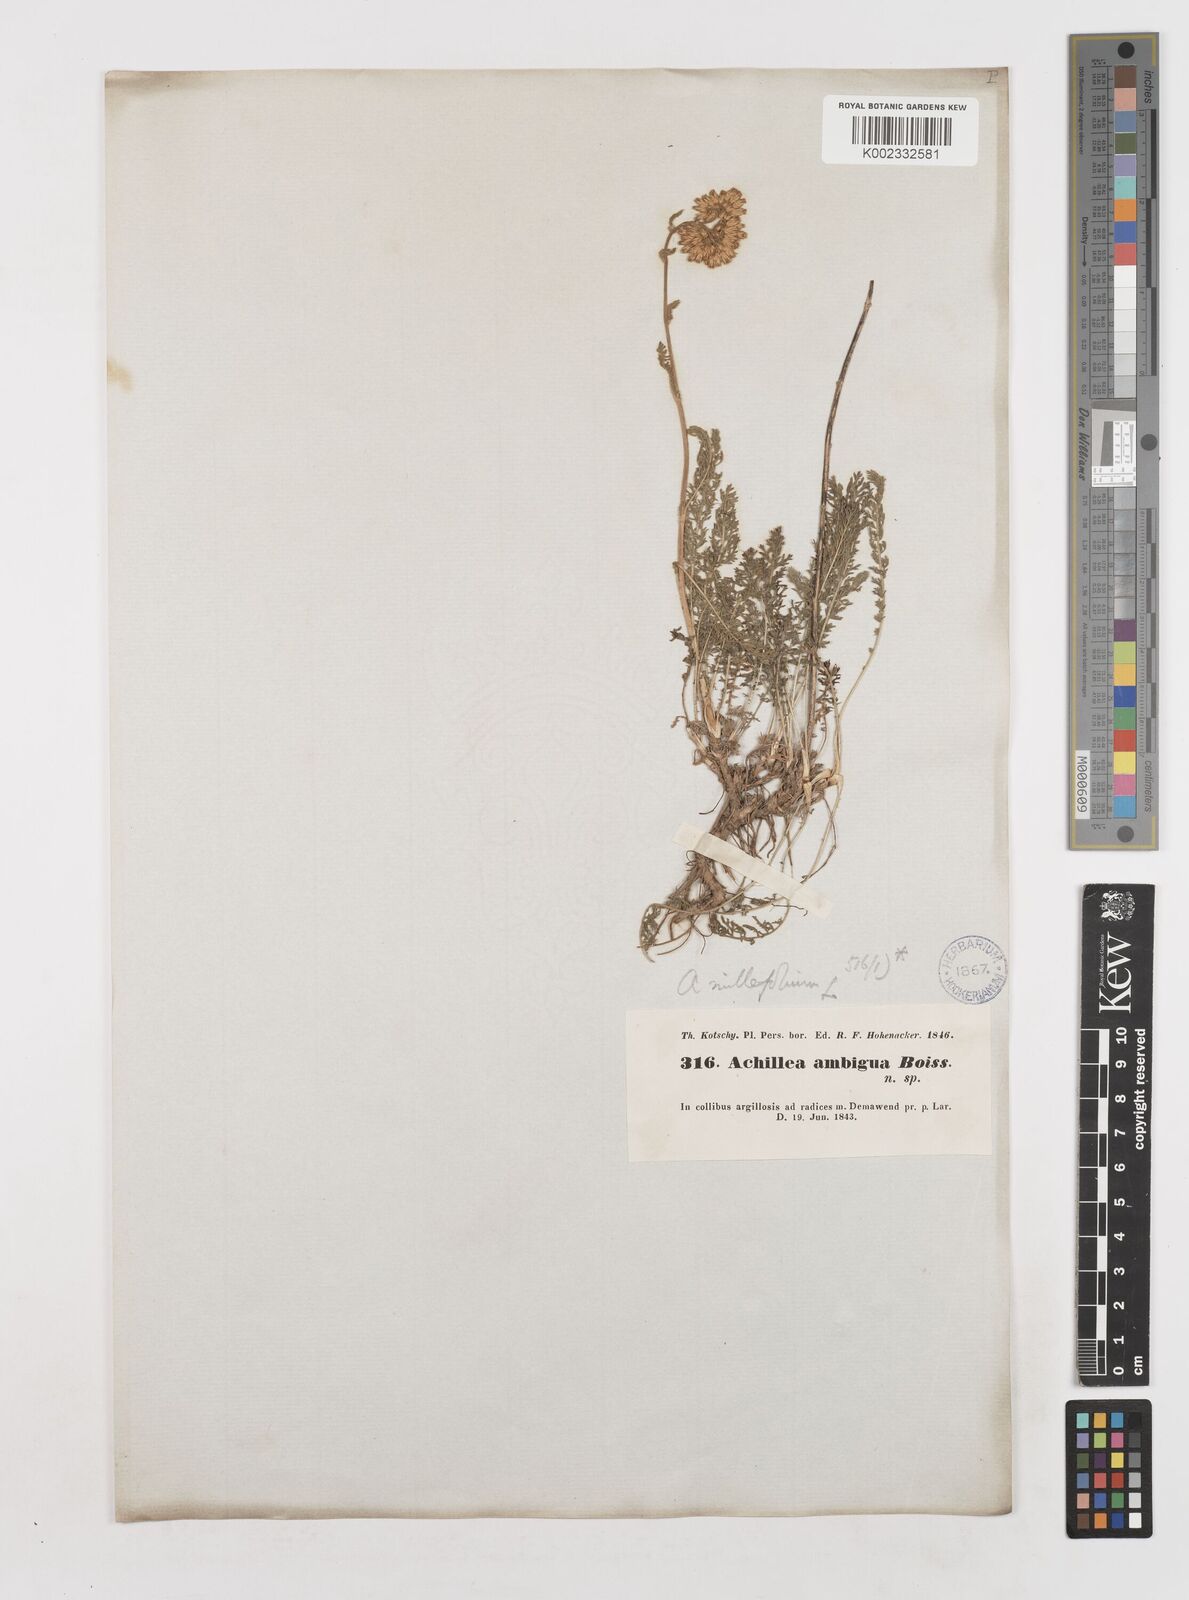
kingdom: Plantae
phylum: Tracheophyta
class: Magnoliopsida
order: Asterales
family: Asteraceae
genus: Achillea
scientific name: Achillea millefolium
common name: Yarrow
